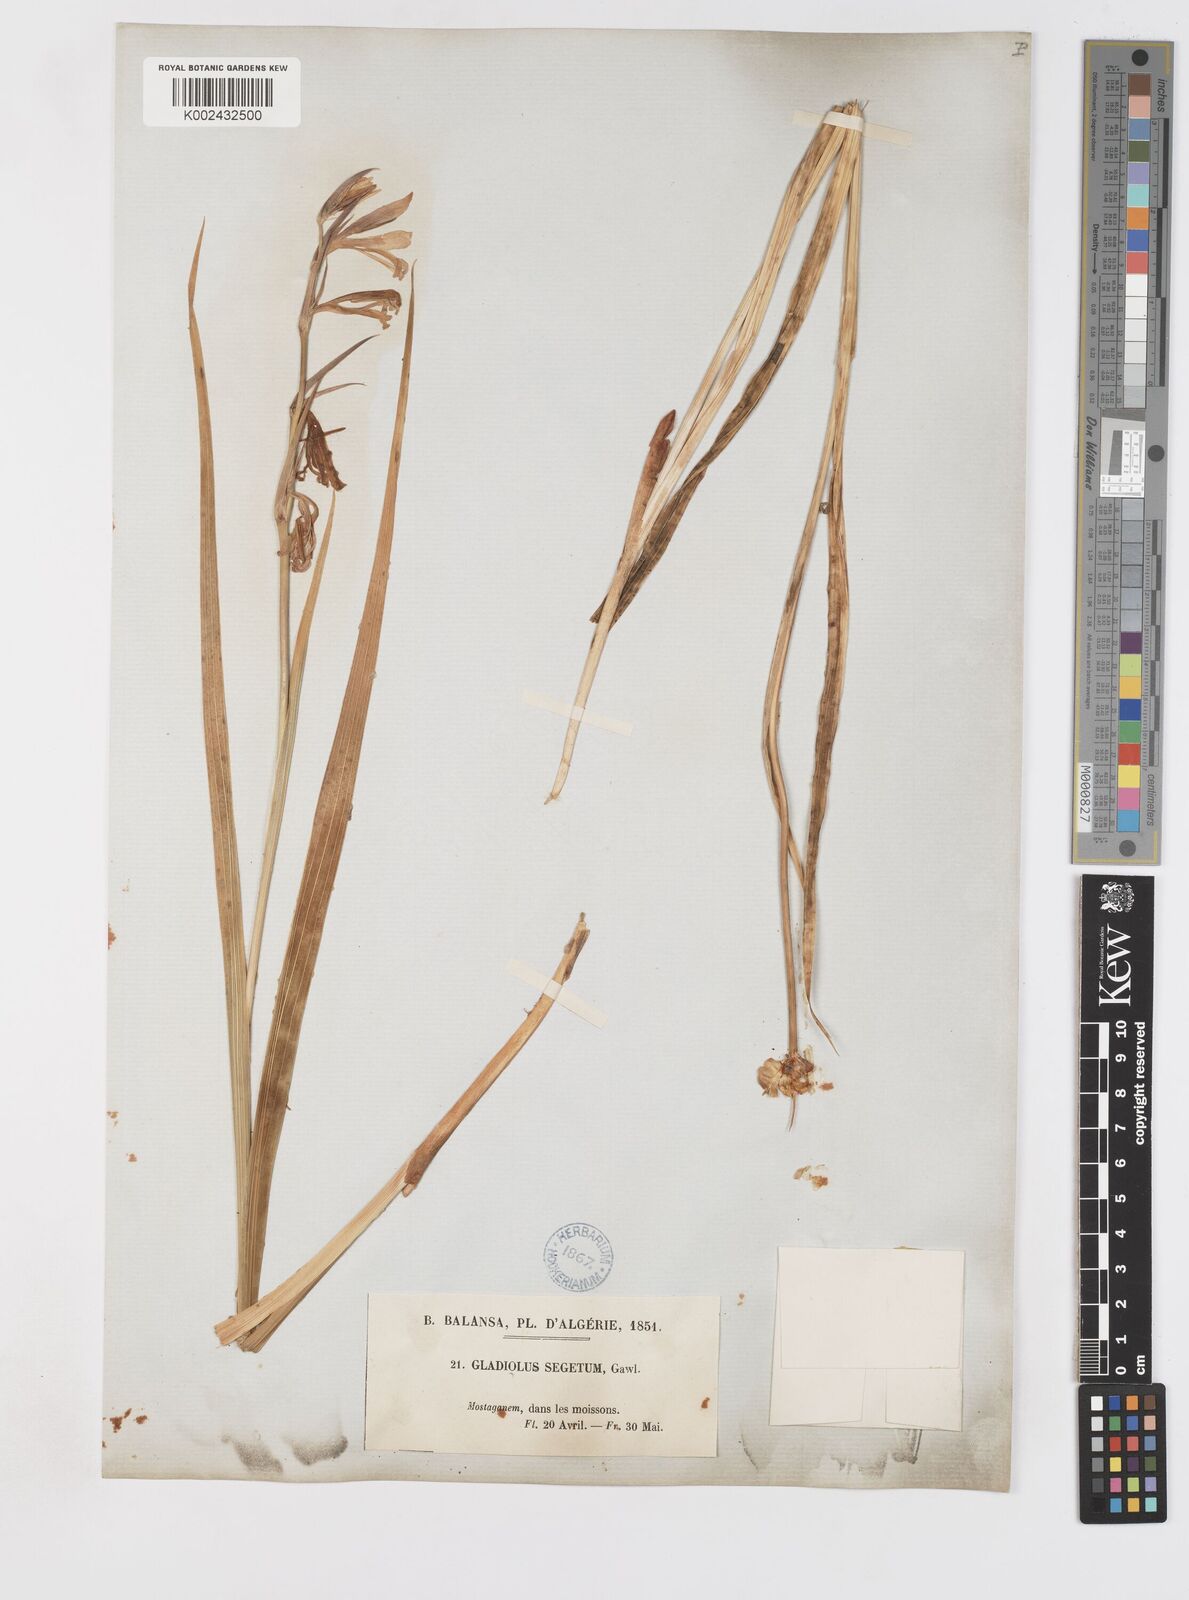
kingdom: Plantae
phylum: Tracheophyta
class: Liliopsida
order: Asparagales
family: Iridaceae
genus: Gladiolus
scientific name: Gladiolus italicus
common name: Field gladiolus
